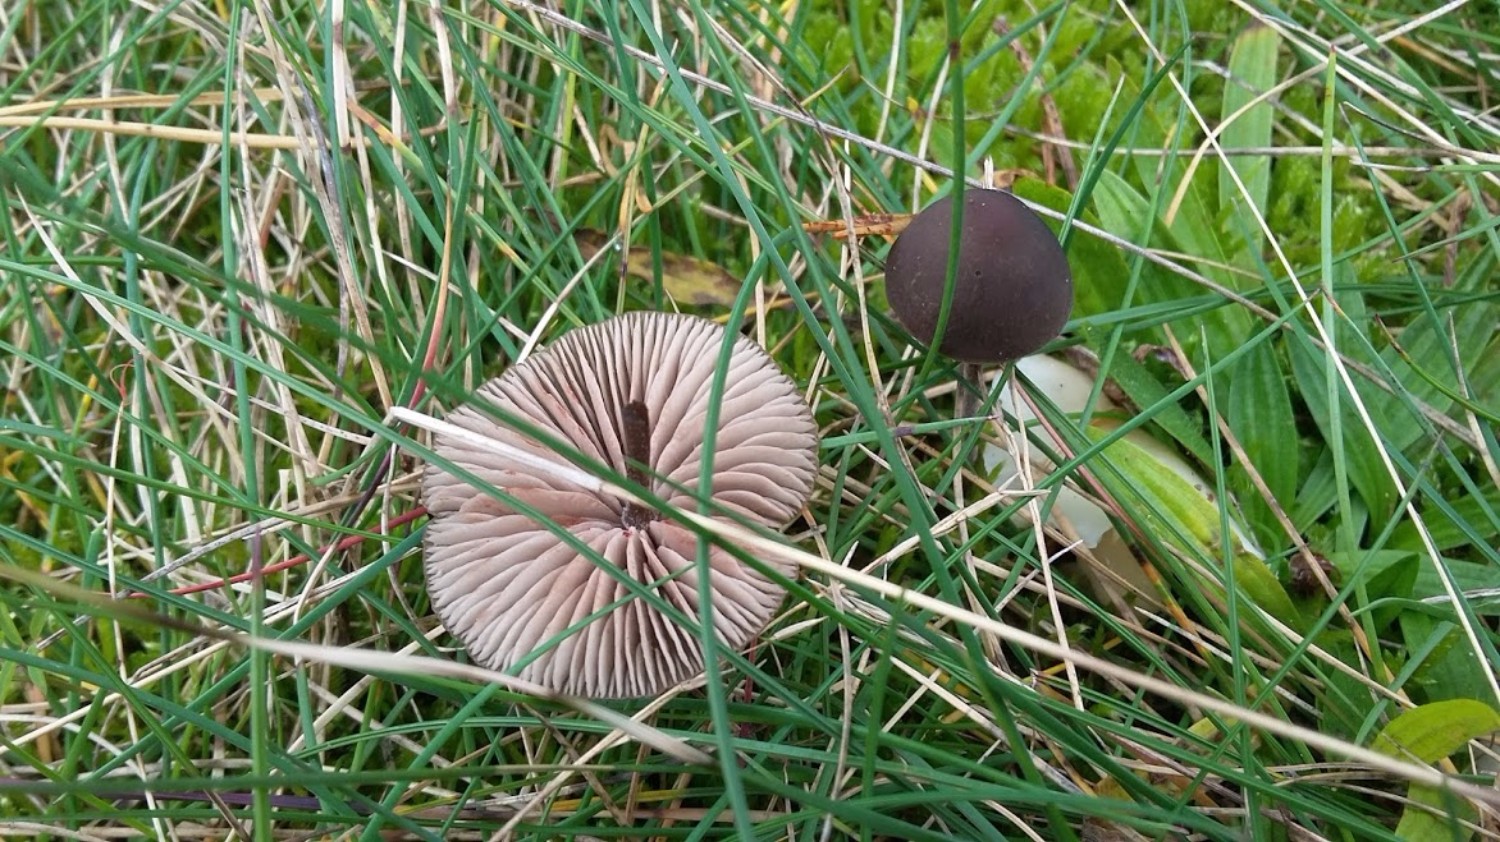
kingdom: Fungi
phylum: Basidiomycota
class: Agaricomycetes
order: Agaricales
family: Entolomataceae
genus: Entoloma
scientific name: Entoloma
